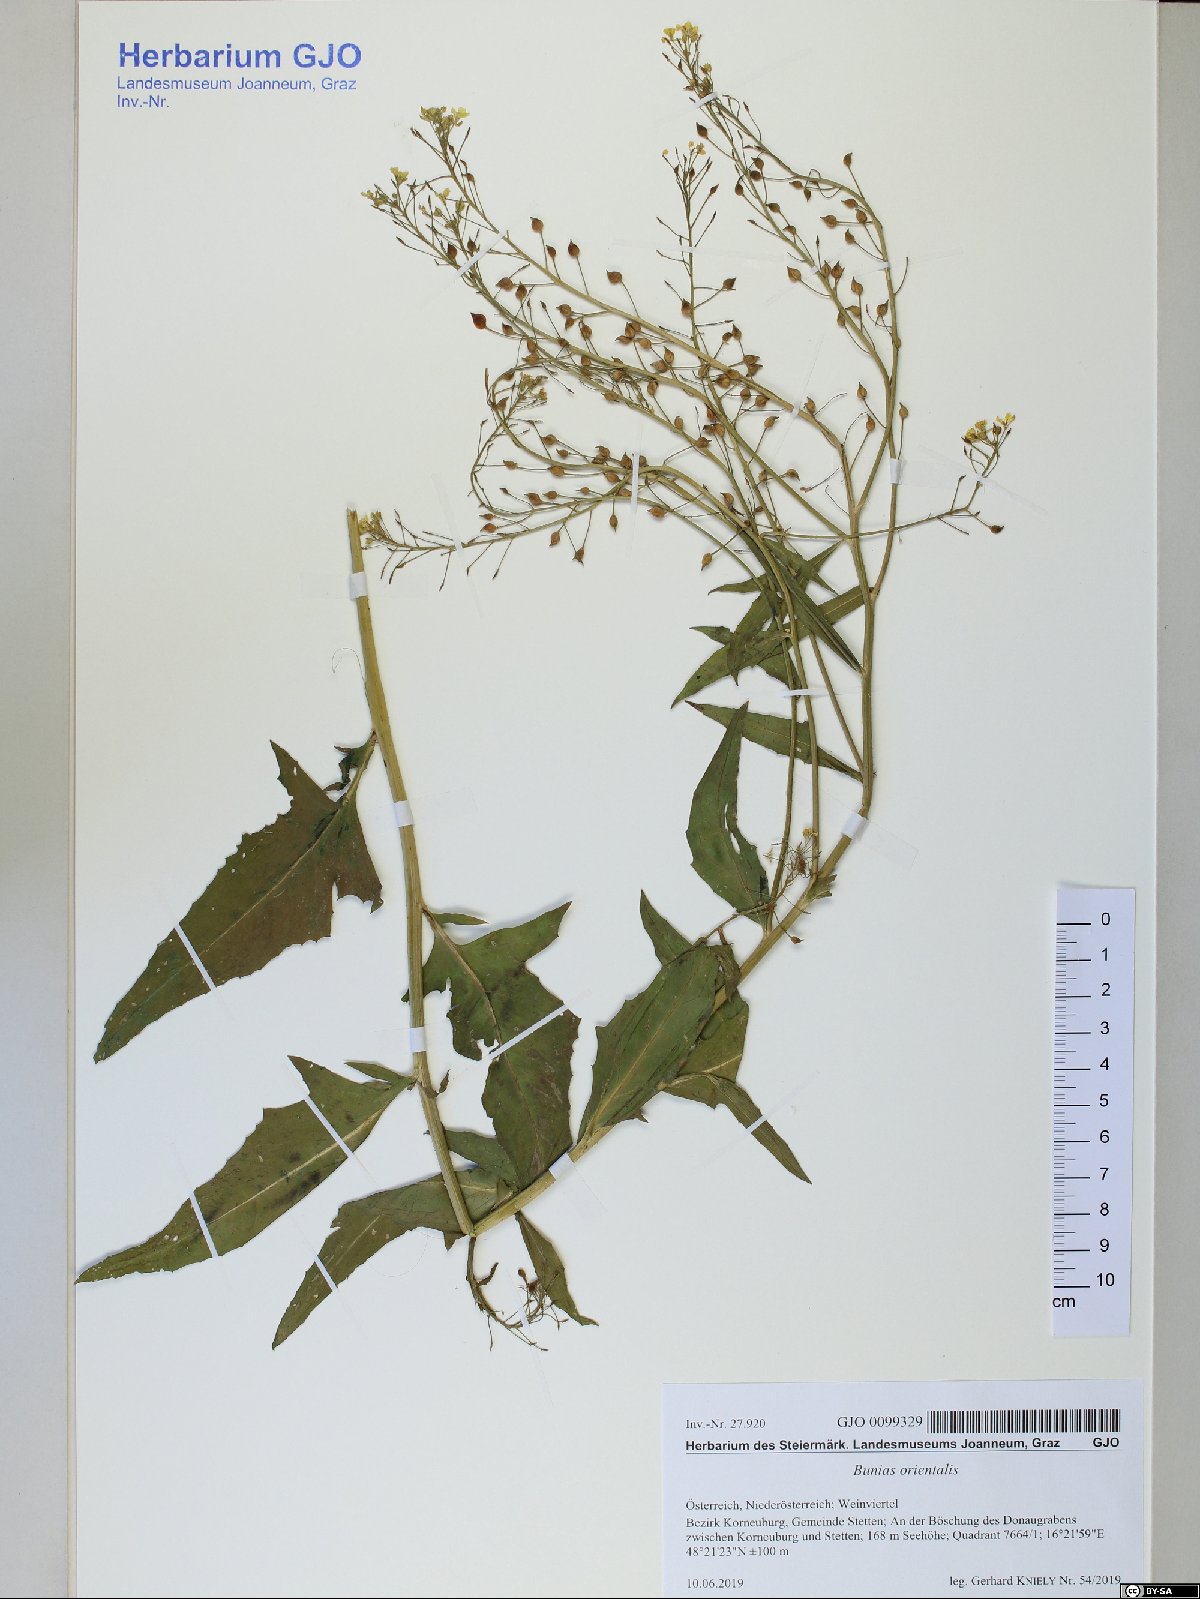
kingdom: Plantae
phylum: Tracheophyta
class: Magnoliopsida
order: Brassicales
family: Brassicaceae
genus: Bunias
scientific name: Bunias orientalis
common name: Warty-cabbage
